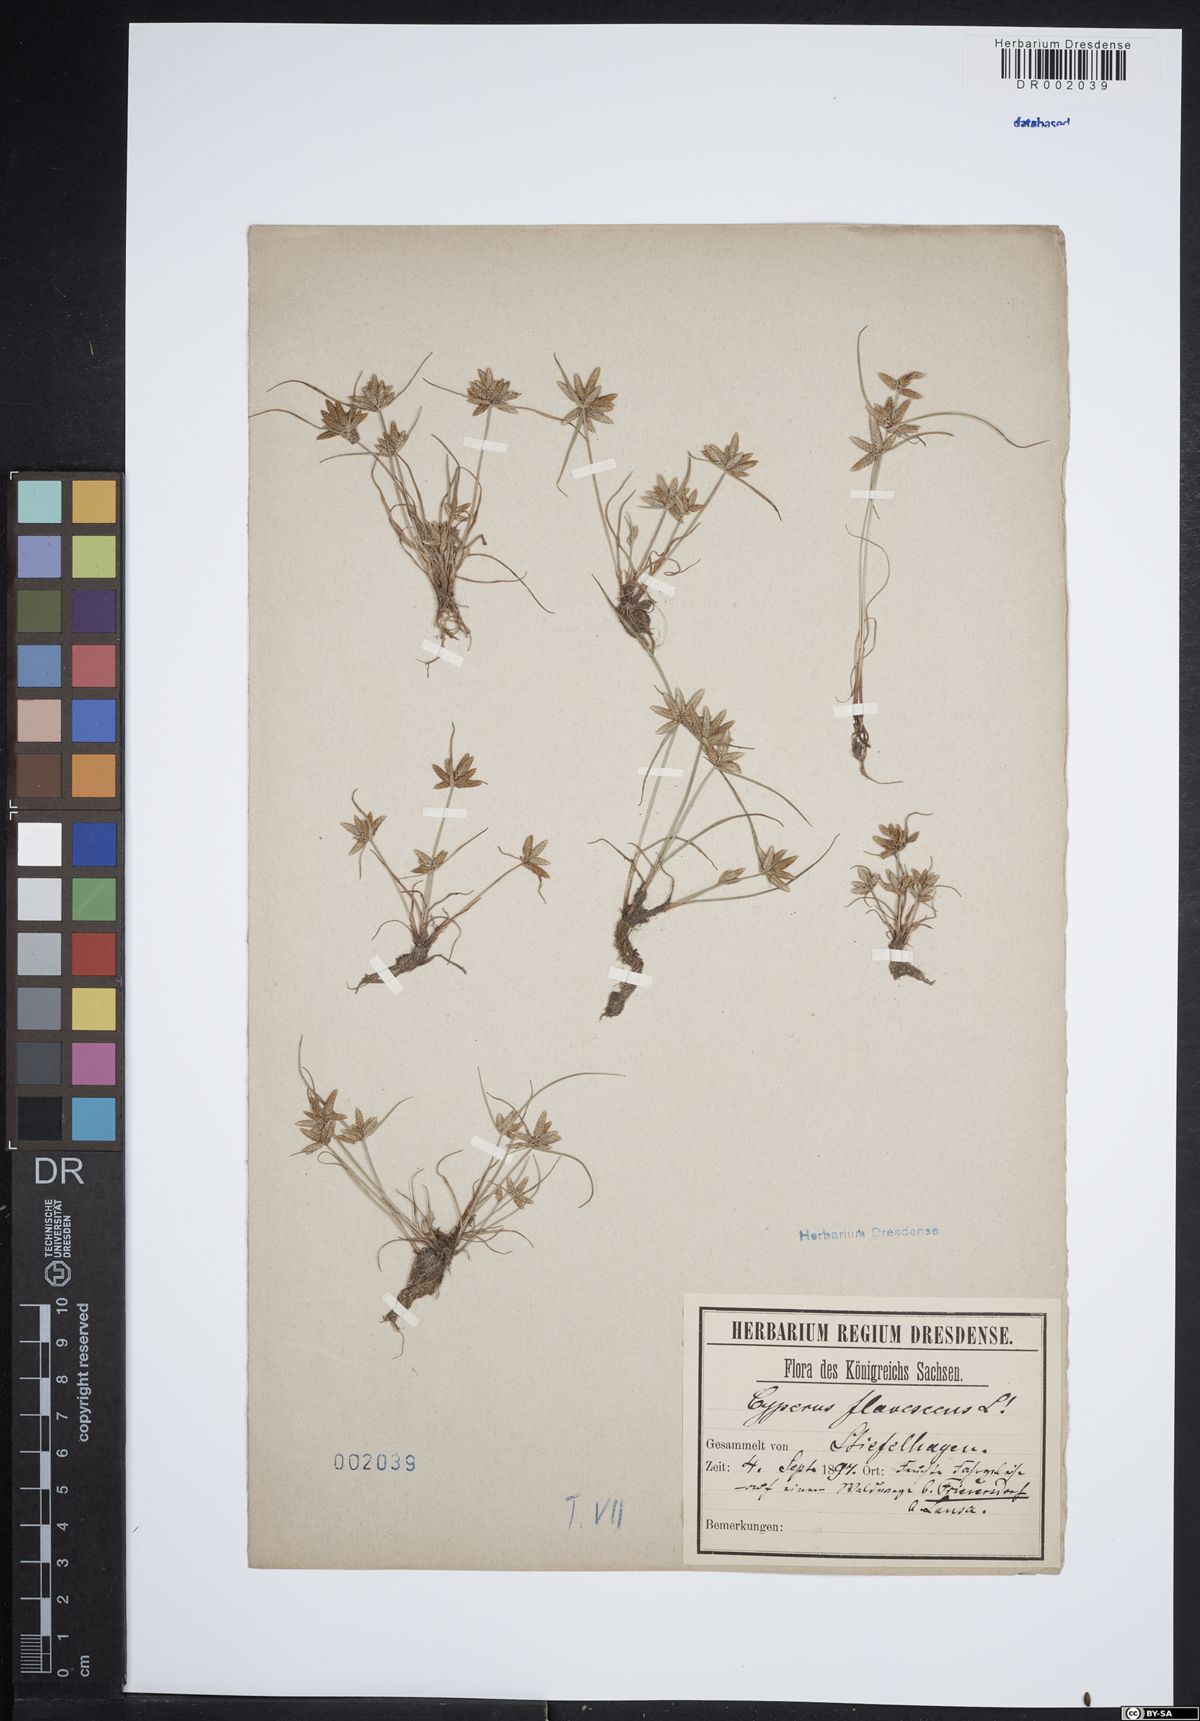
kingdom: Plantae
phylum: Tracheophyta
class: Liliopsida
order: Poales
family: Cyperaceae
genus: Cyperus
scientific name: Cyperus flavescens
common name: Yellow galingale
